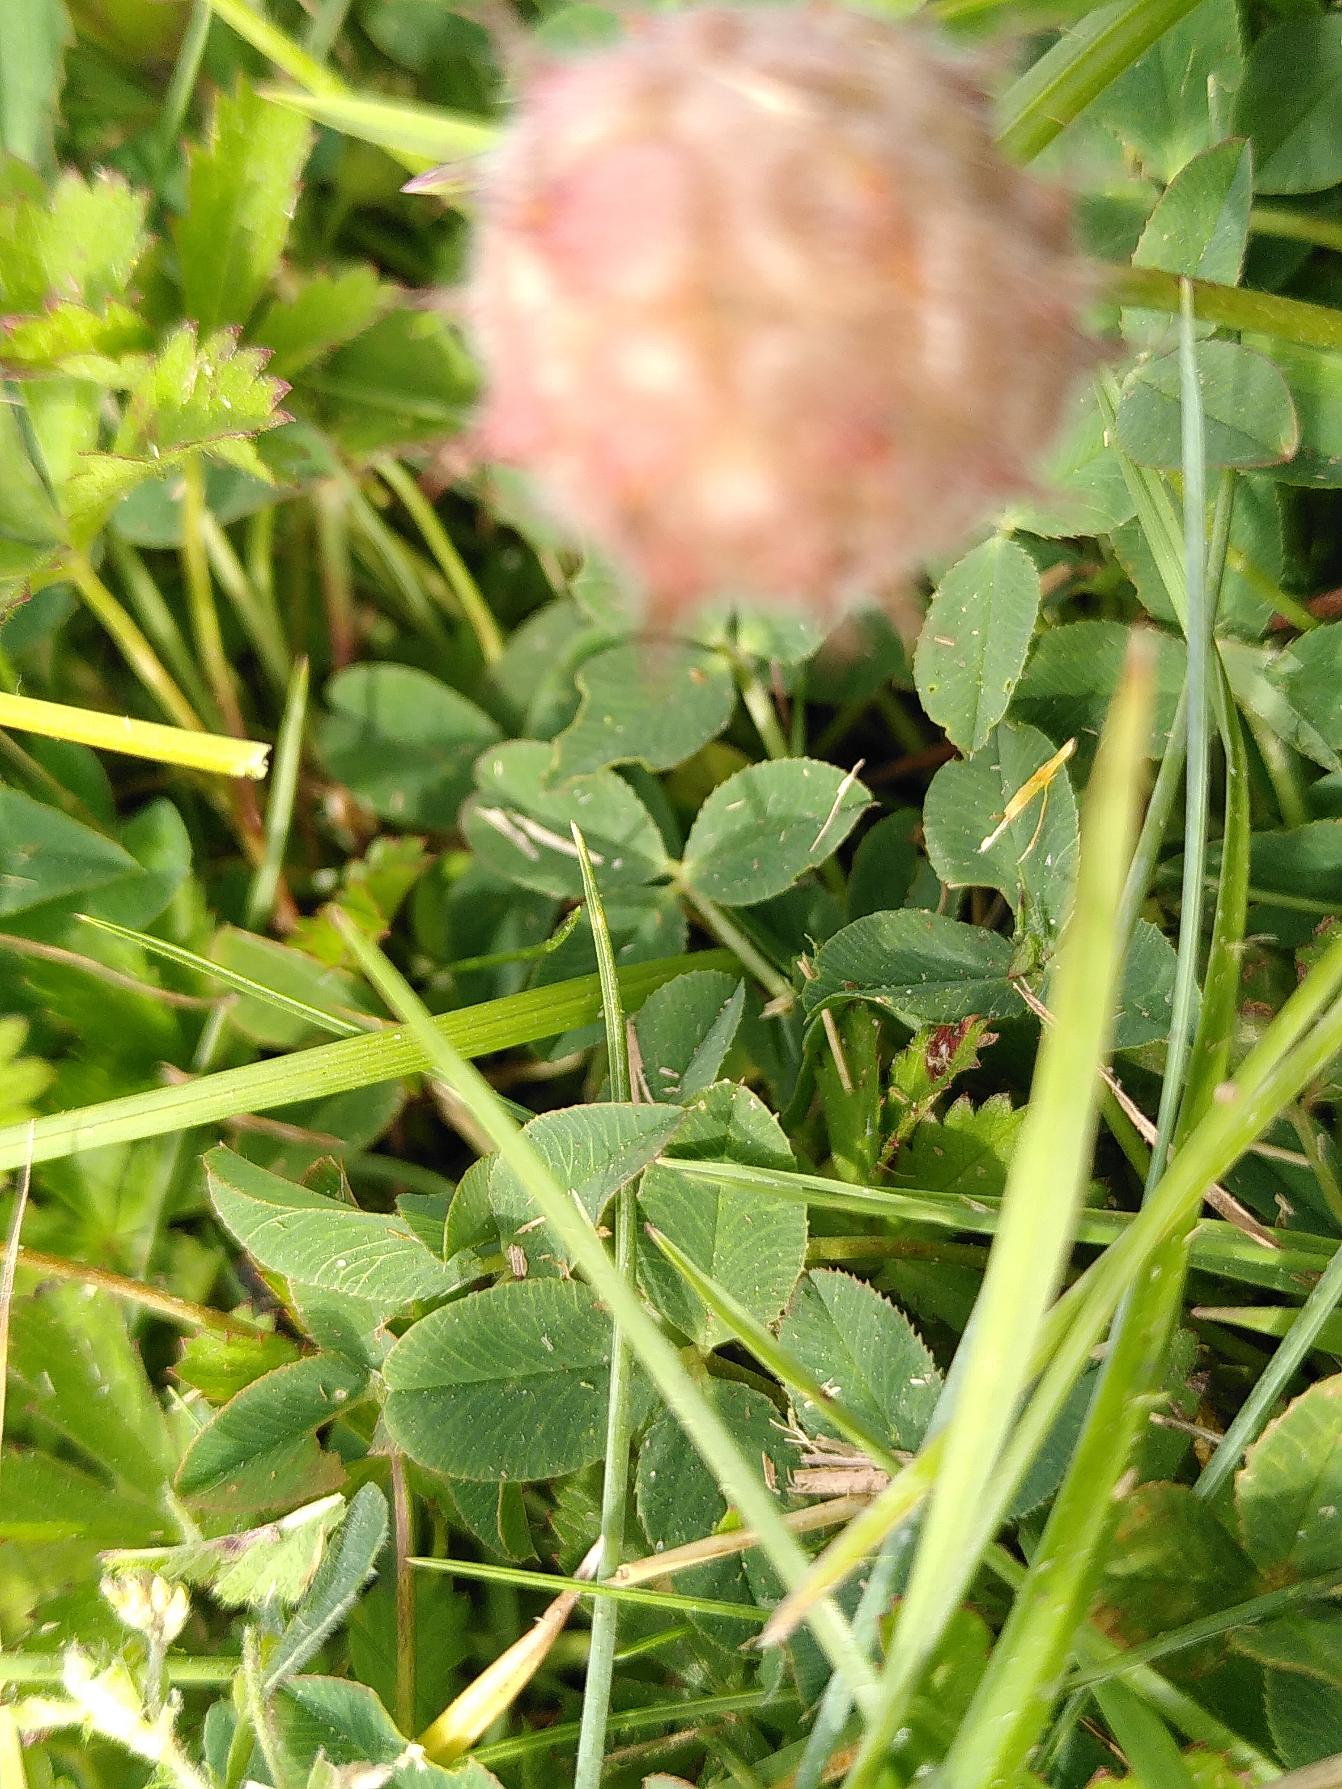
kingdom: Plantae
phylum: Tracheophyta
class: Magnoliopsida
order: Fabales
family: Fabaceae
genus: Trifolium
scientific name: Trifolium fragiferum
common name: Jordbær-kløver
